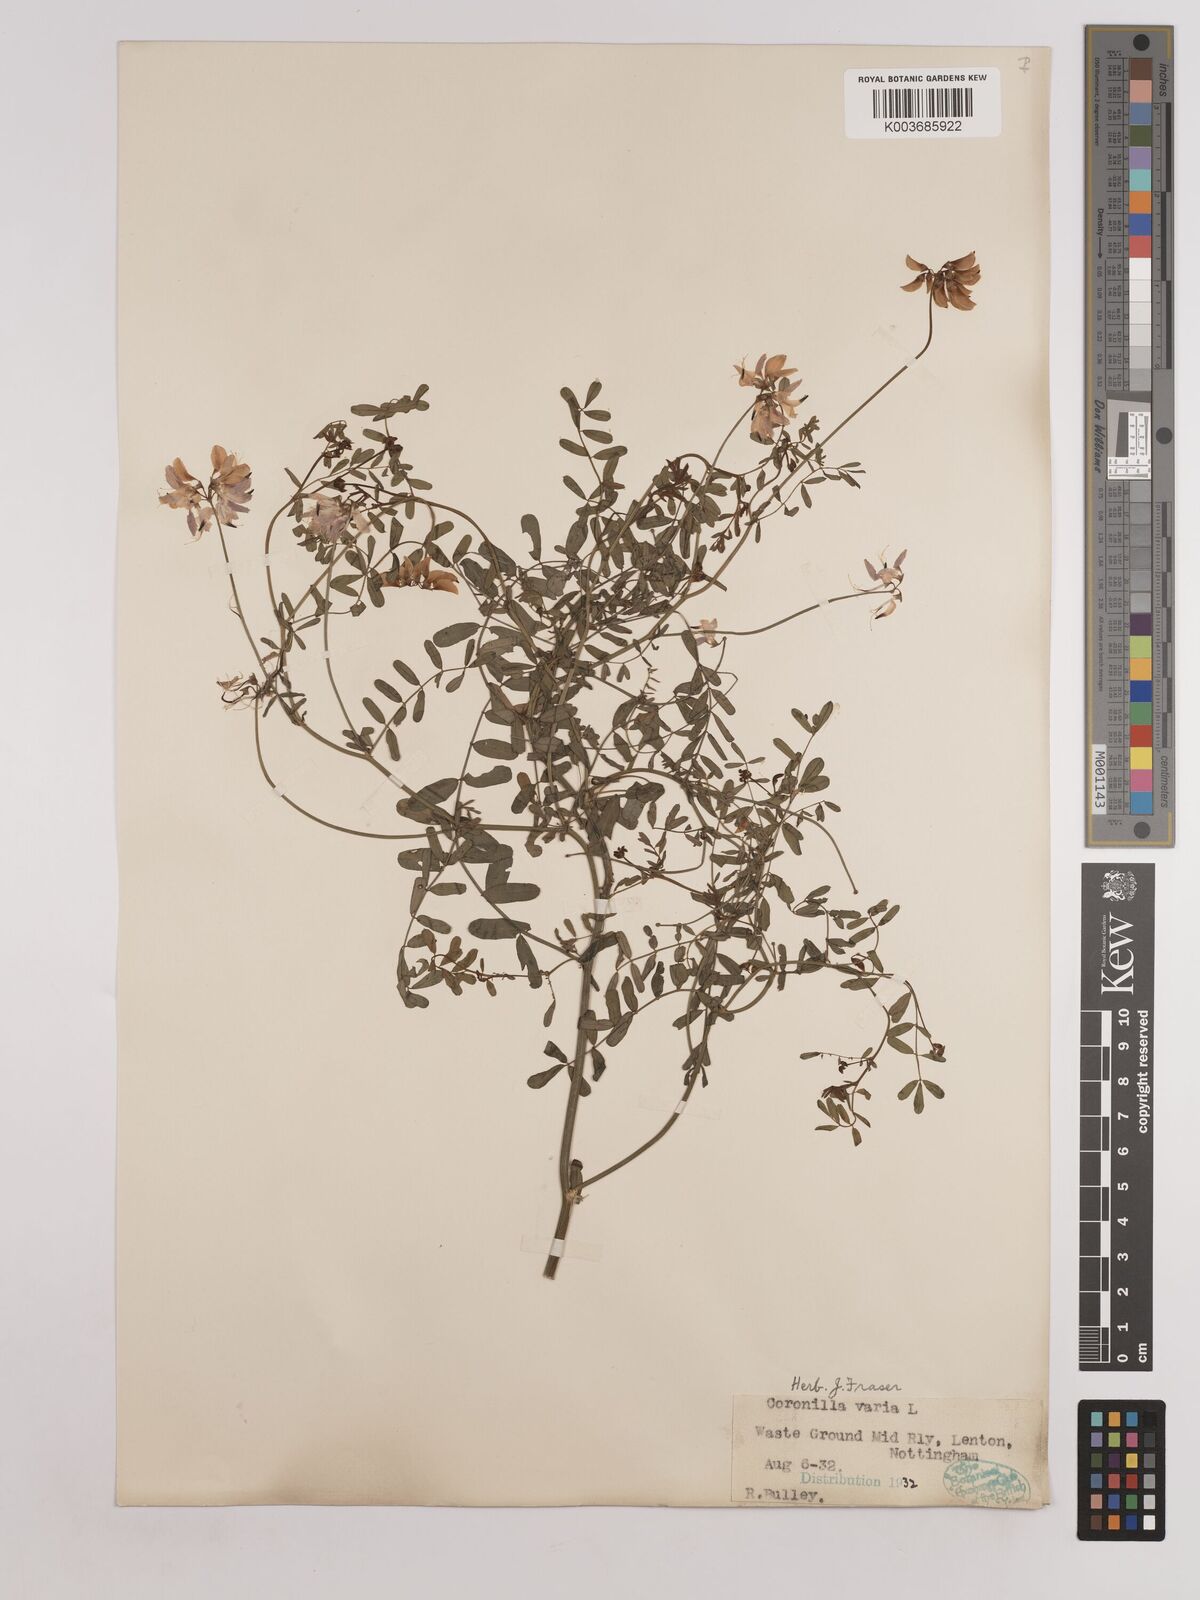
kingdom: Plantae
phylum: Tracheophyta
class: Magnoliopsida
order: Fabales
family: Fabaceae
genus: Coronilla
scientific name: Coronilla varia
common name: Crownvetch
